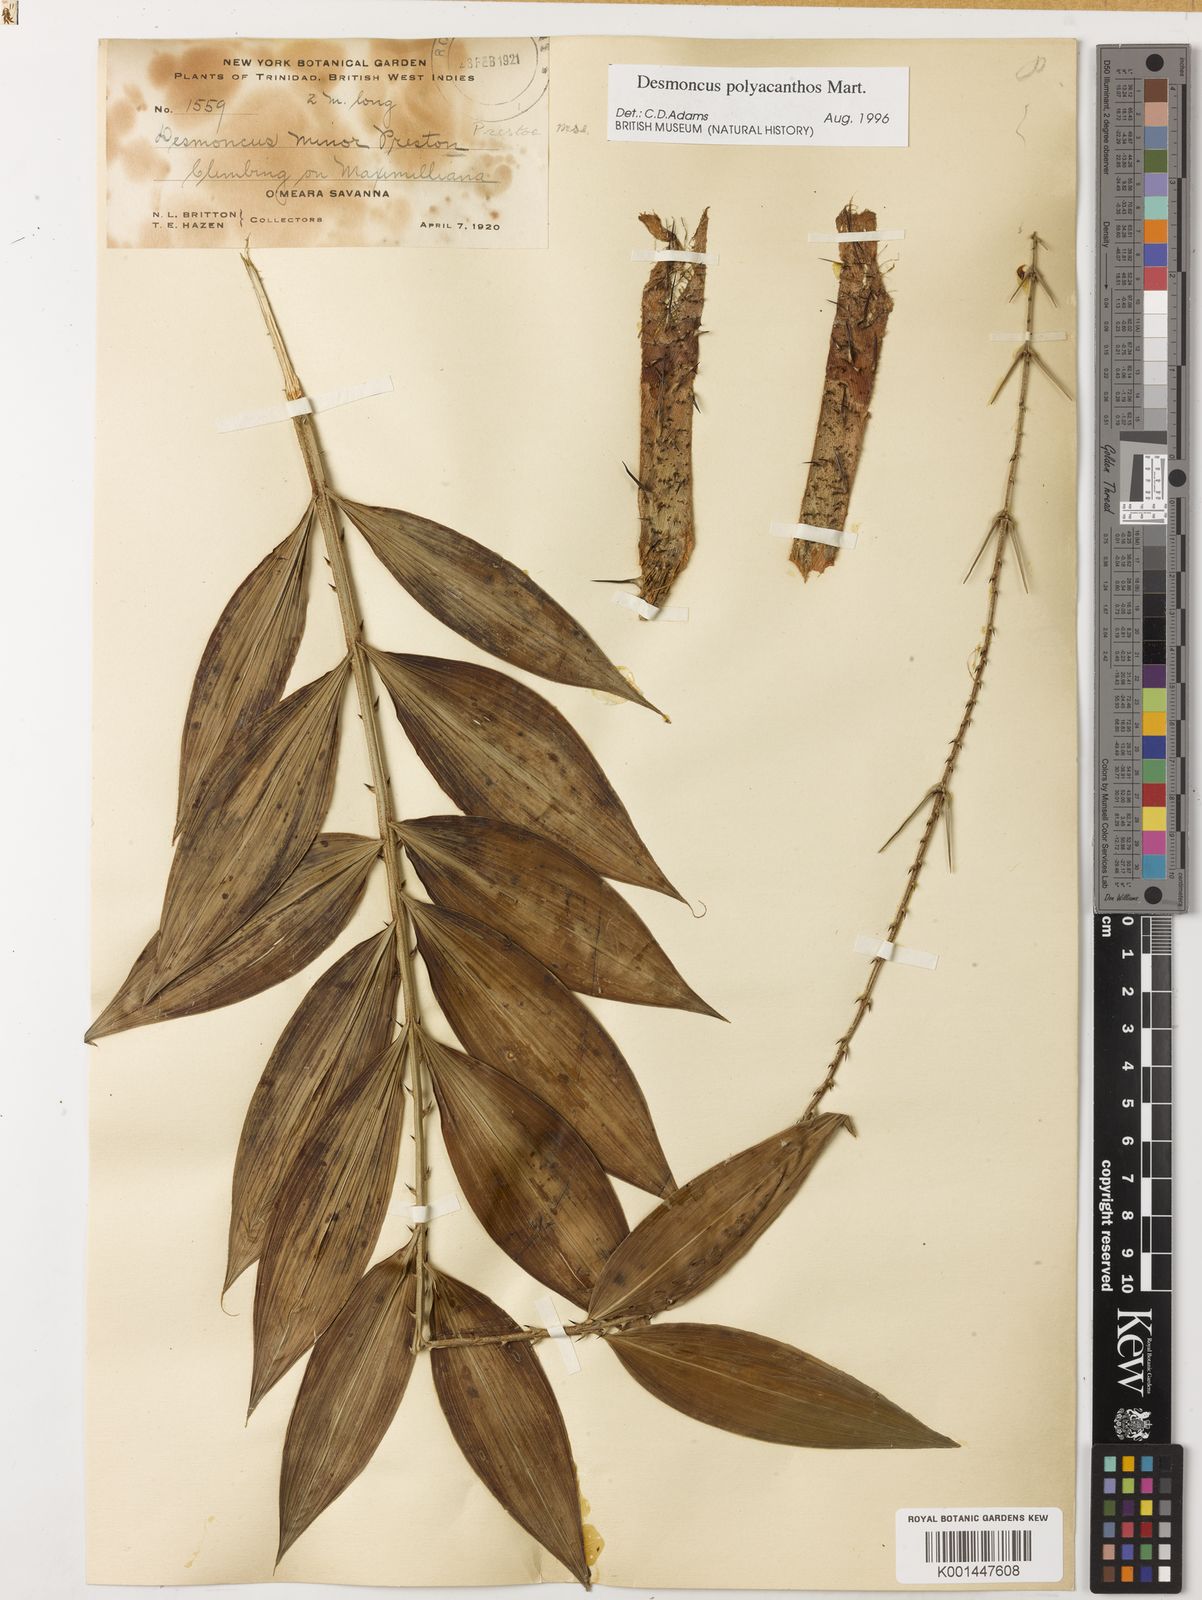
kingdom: Plantae
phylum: Tracheophyta
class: Liliopsida
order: Arecales
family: Arecaceae
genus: Desmoncus
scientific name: Desmoncus polyacanthos
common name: Suriname bramble palm
